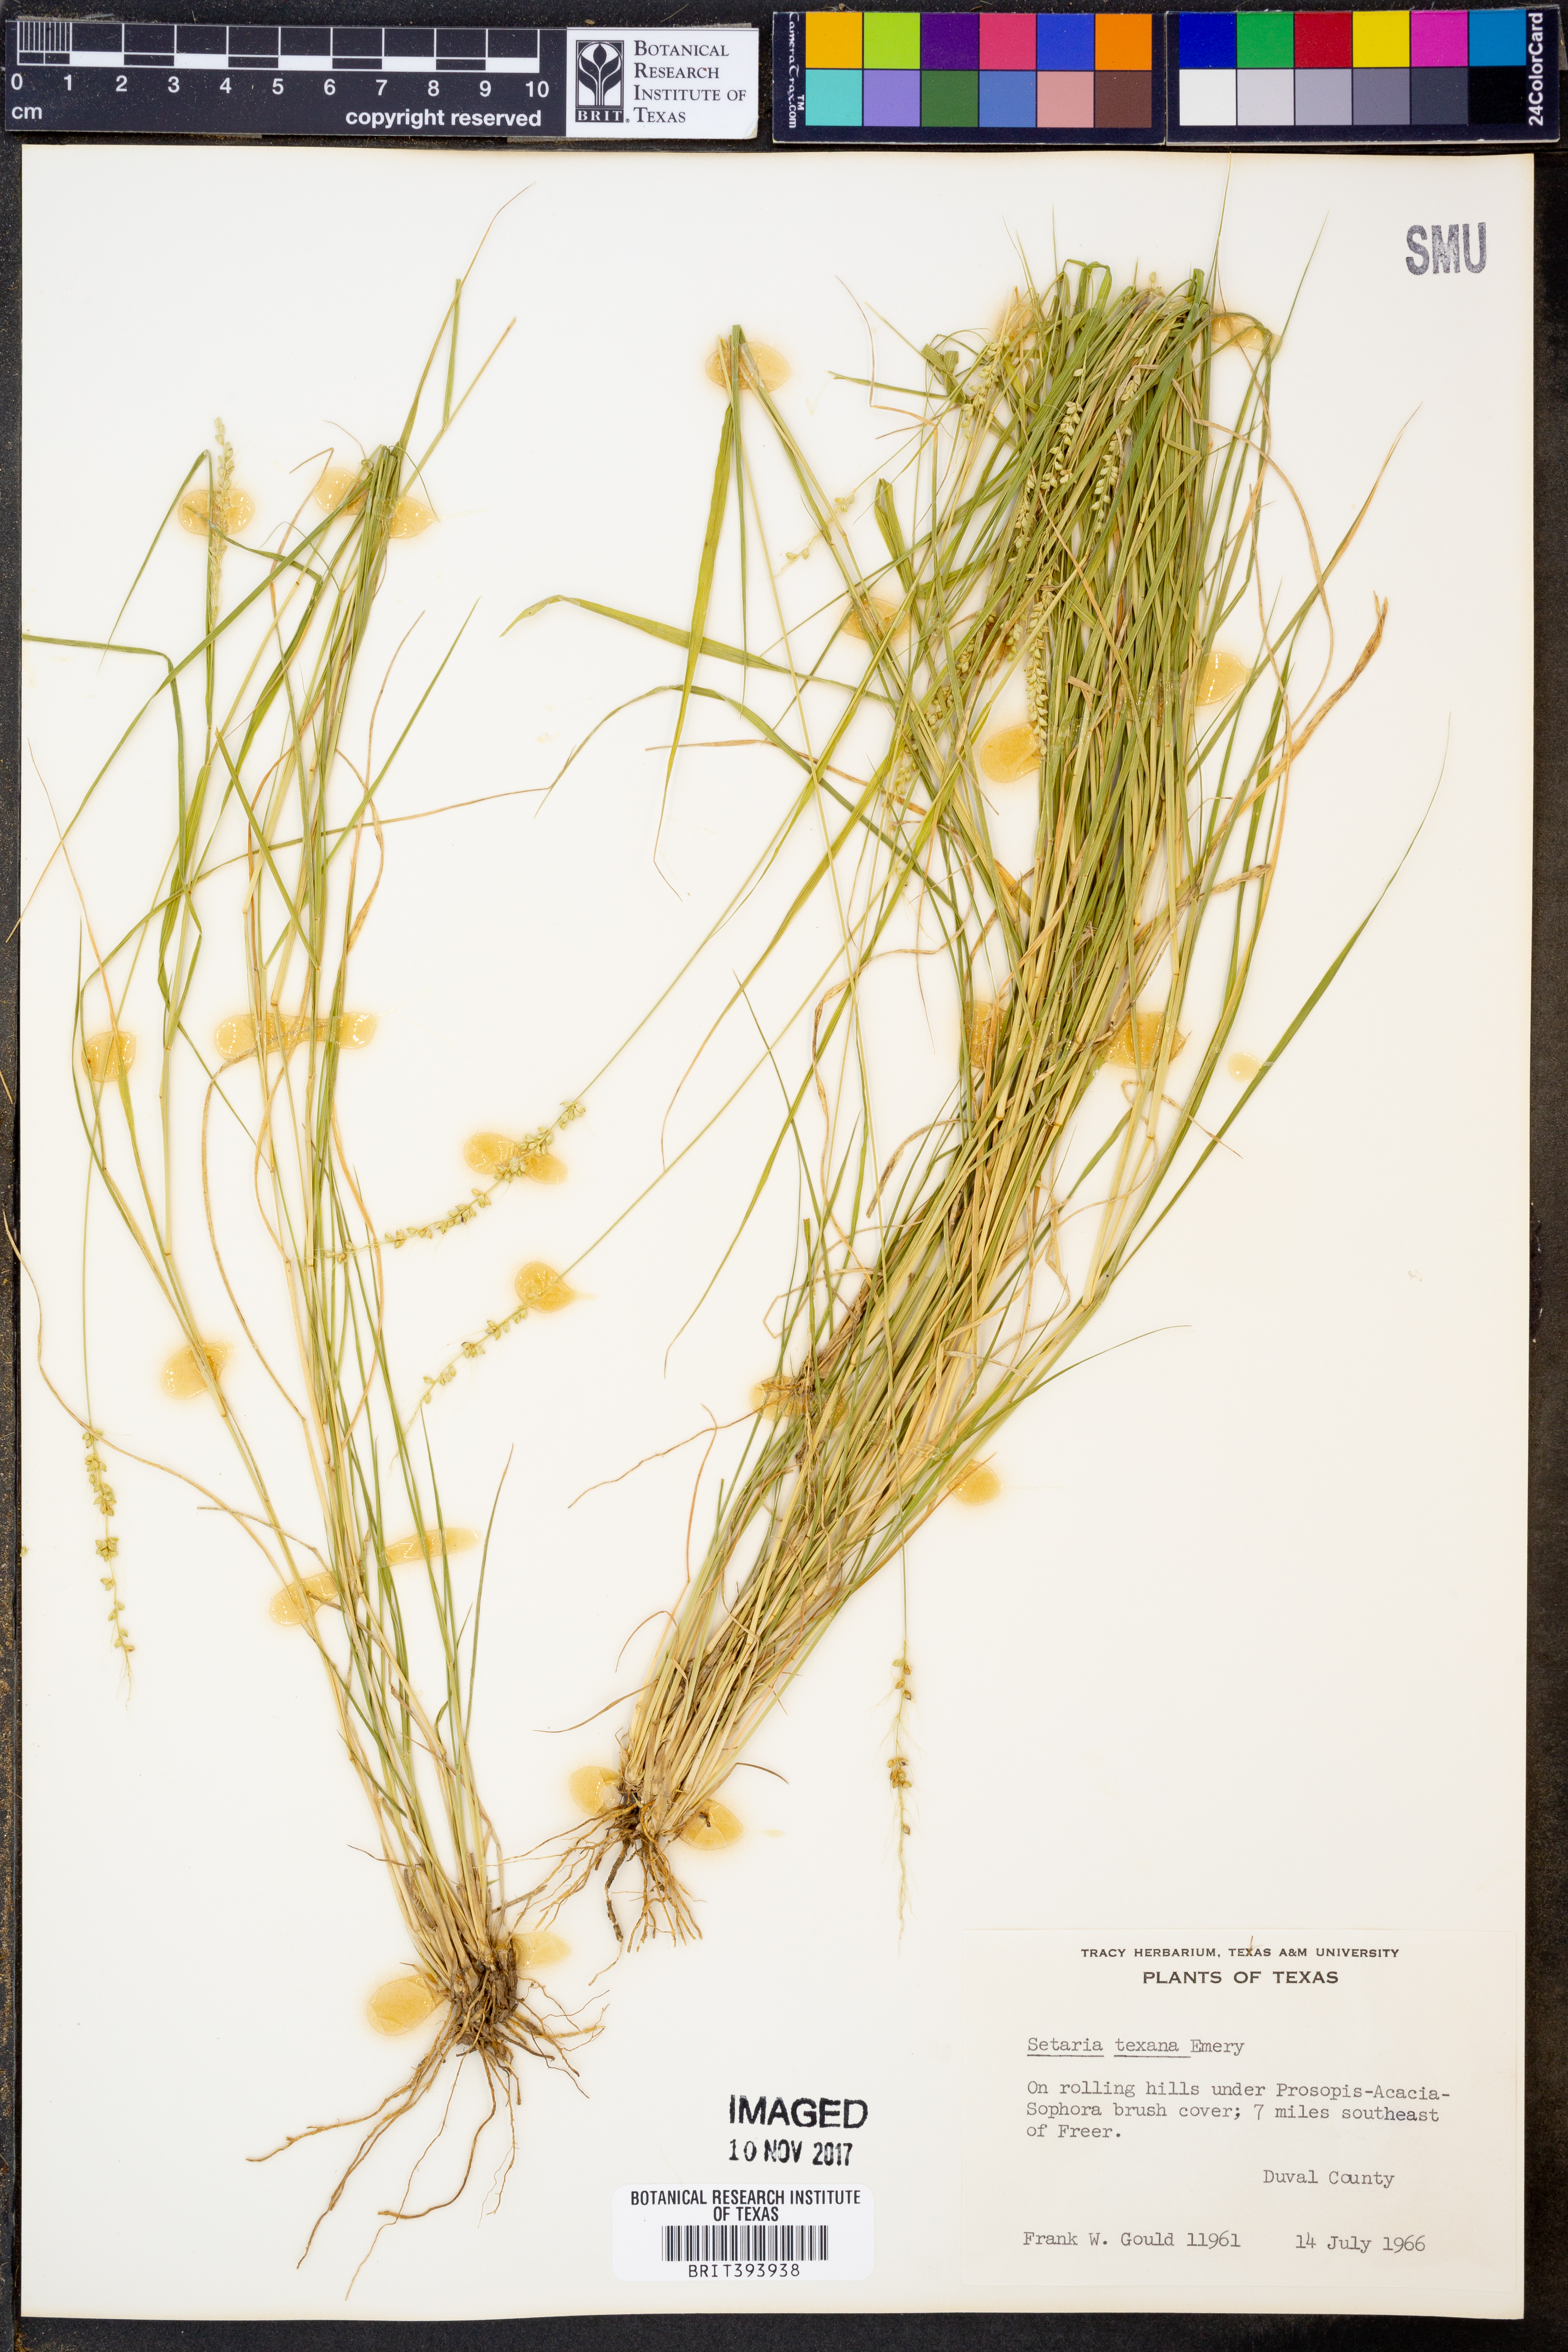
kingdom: Plantae
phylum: Tracheophyta
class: Liliopsida
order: Poales
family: Poaceae
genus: Setaria
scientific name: Setaria texana
